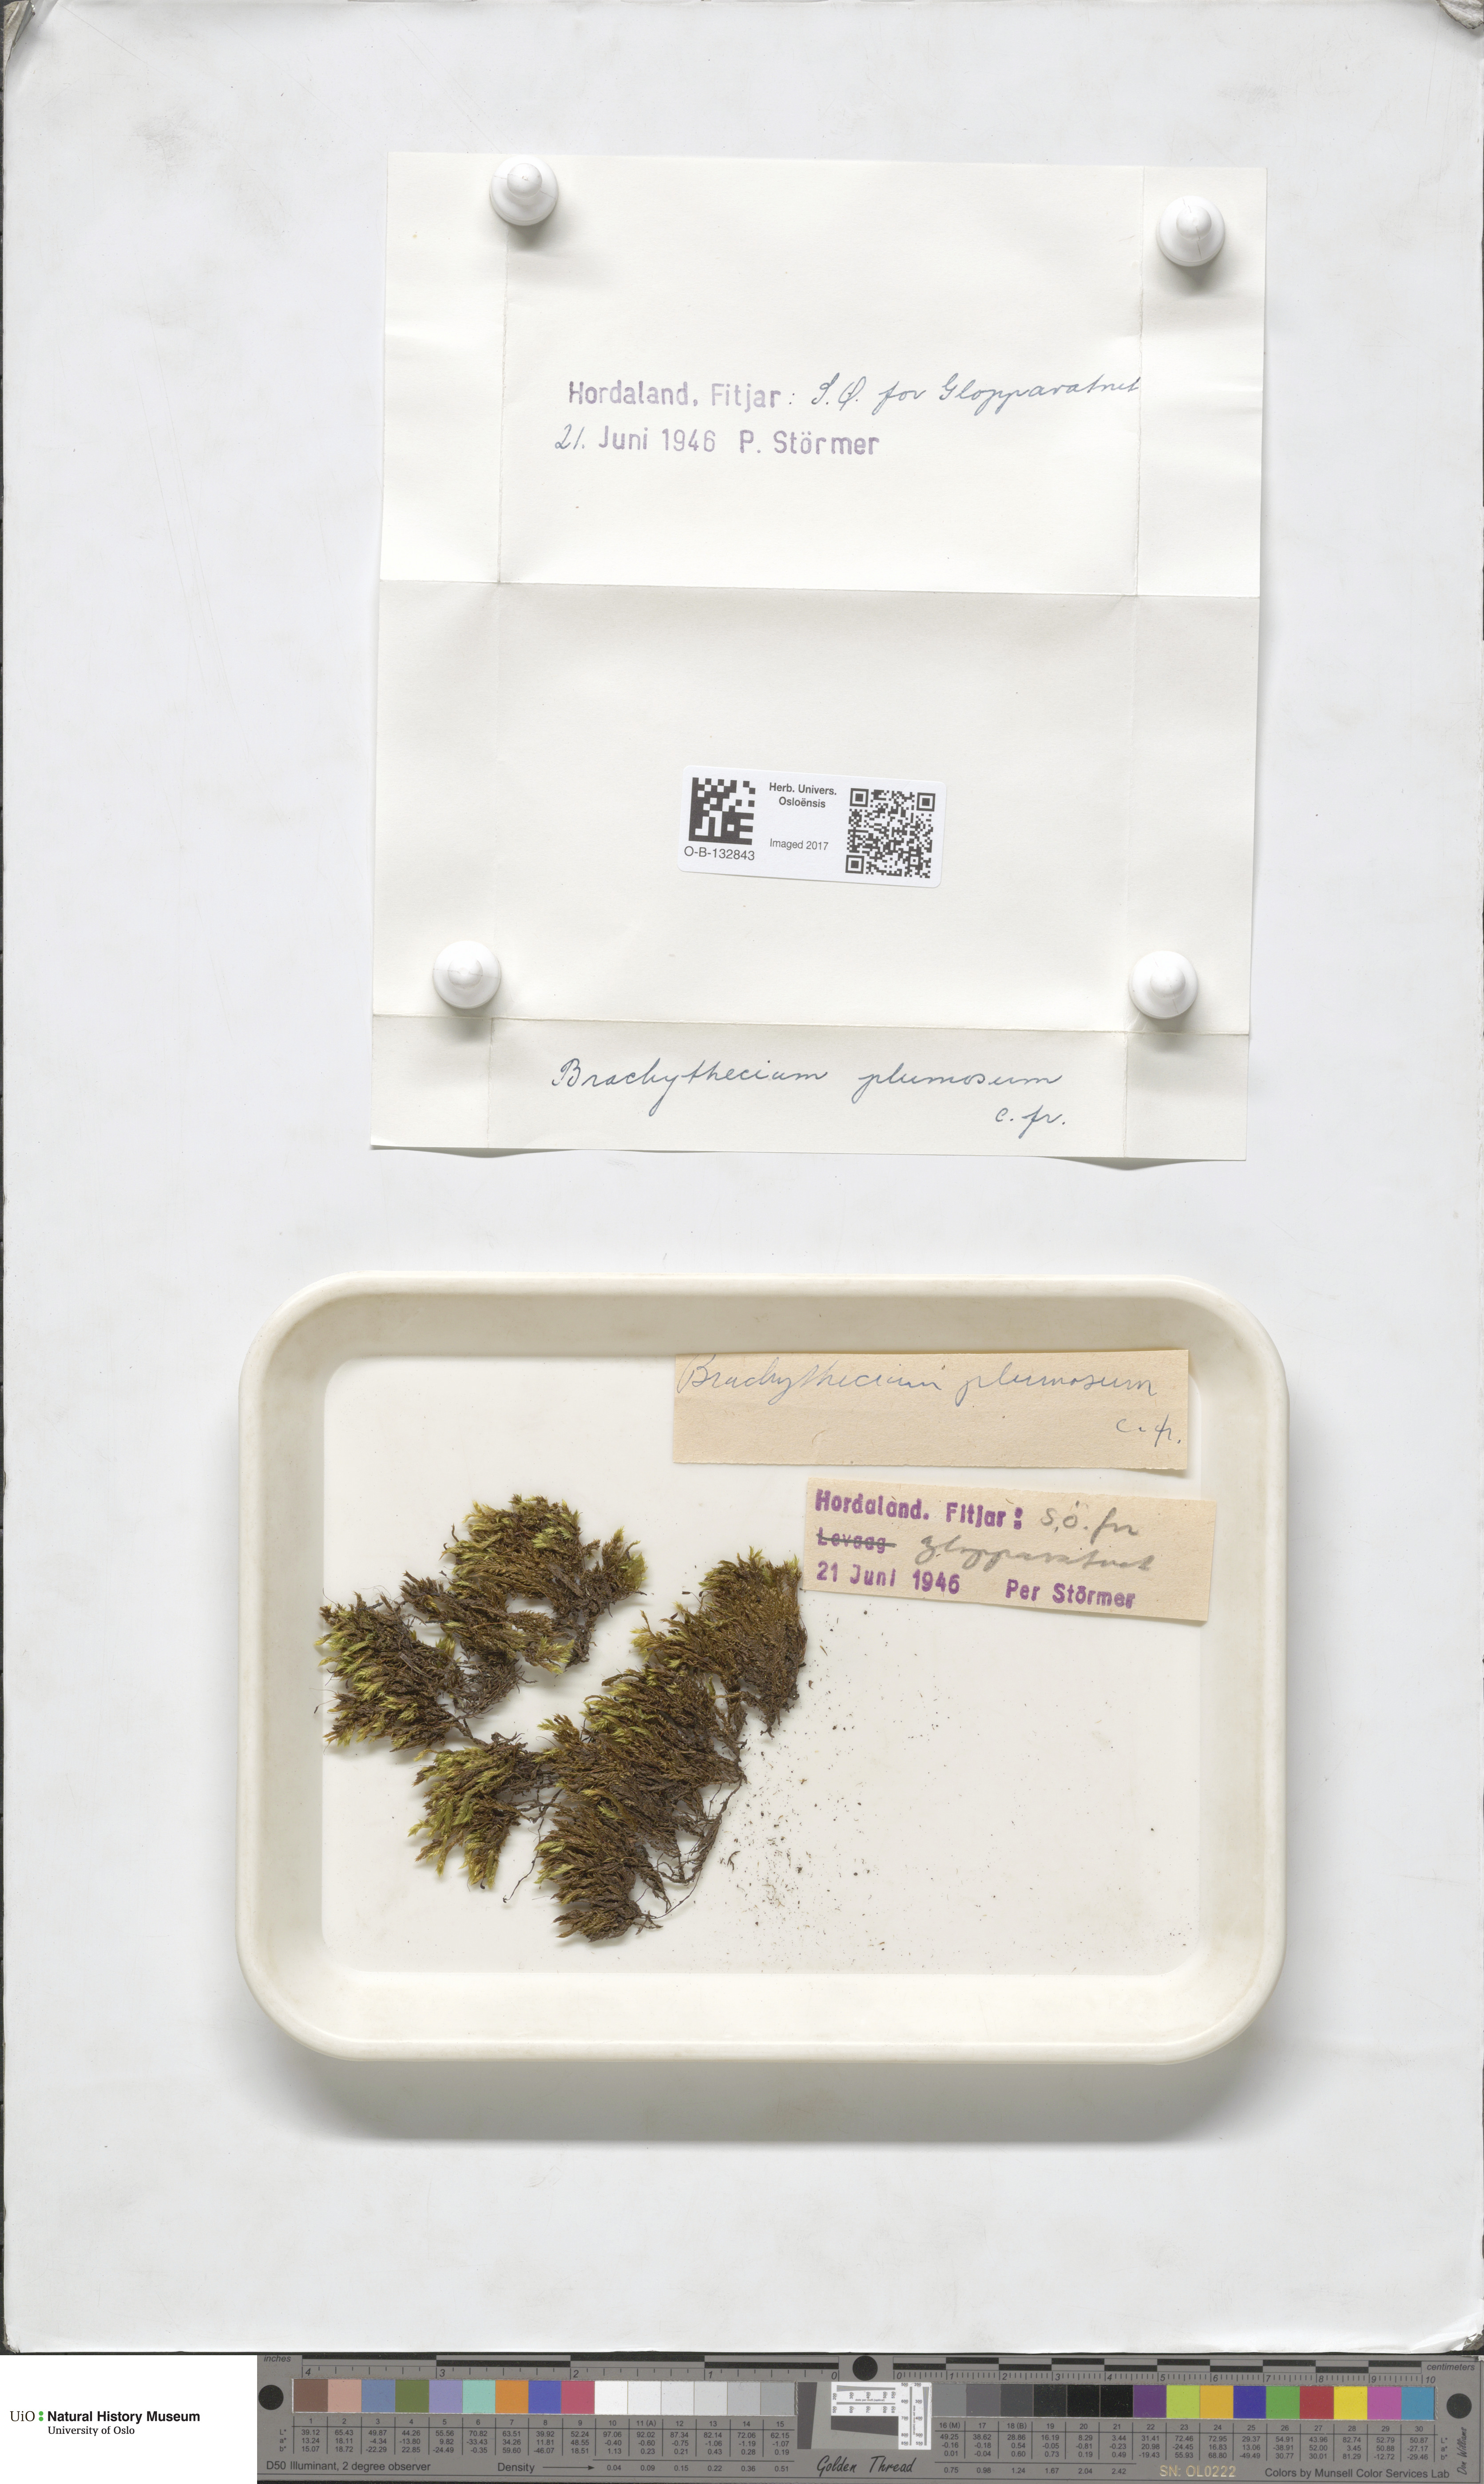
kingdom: Plantae
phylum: Bryophyta
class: Bryopsida
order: Hypnales
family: Brachytheciaceae
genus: Sciuro-hypnum
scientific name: Sciuro-hypnum plumosum
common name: Rusty feather-moss
